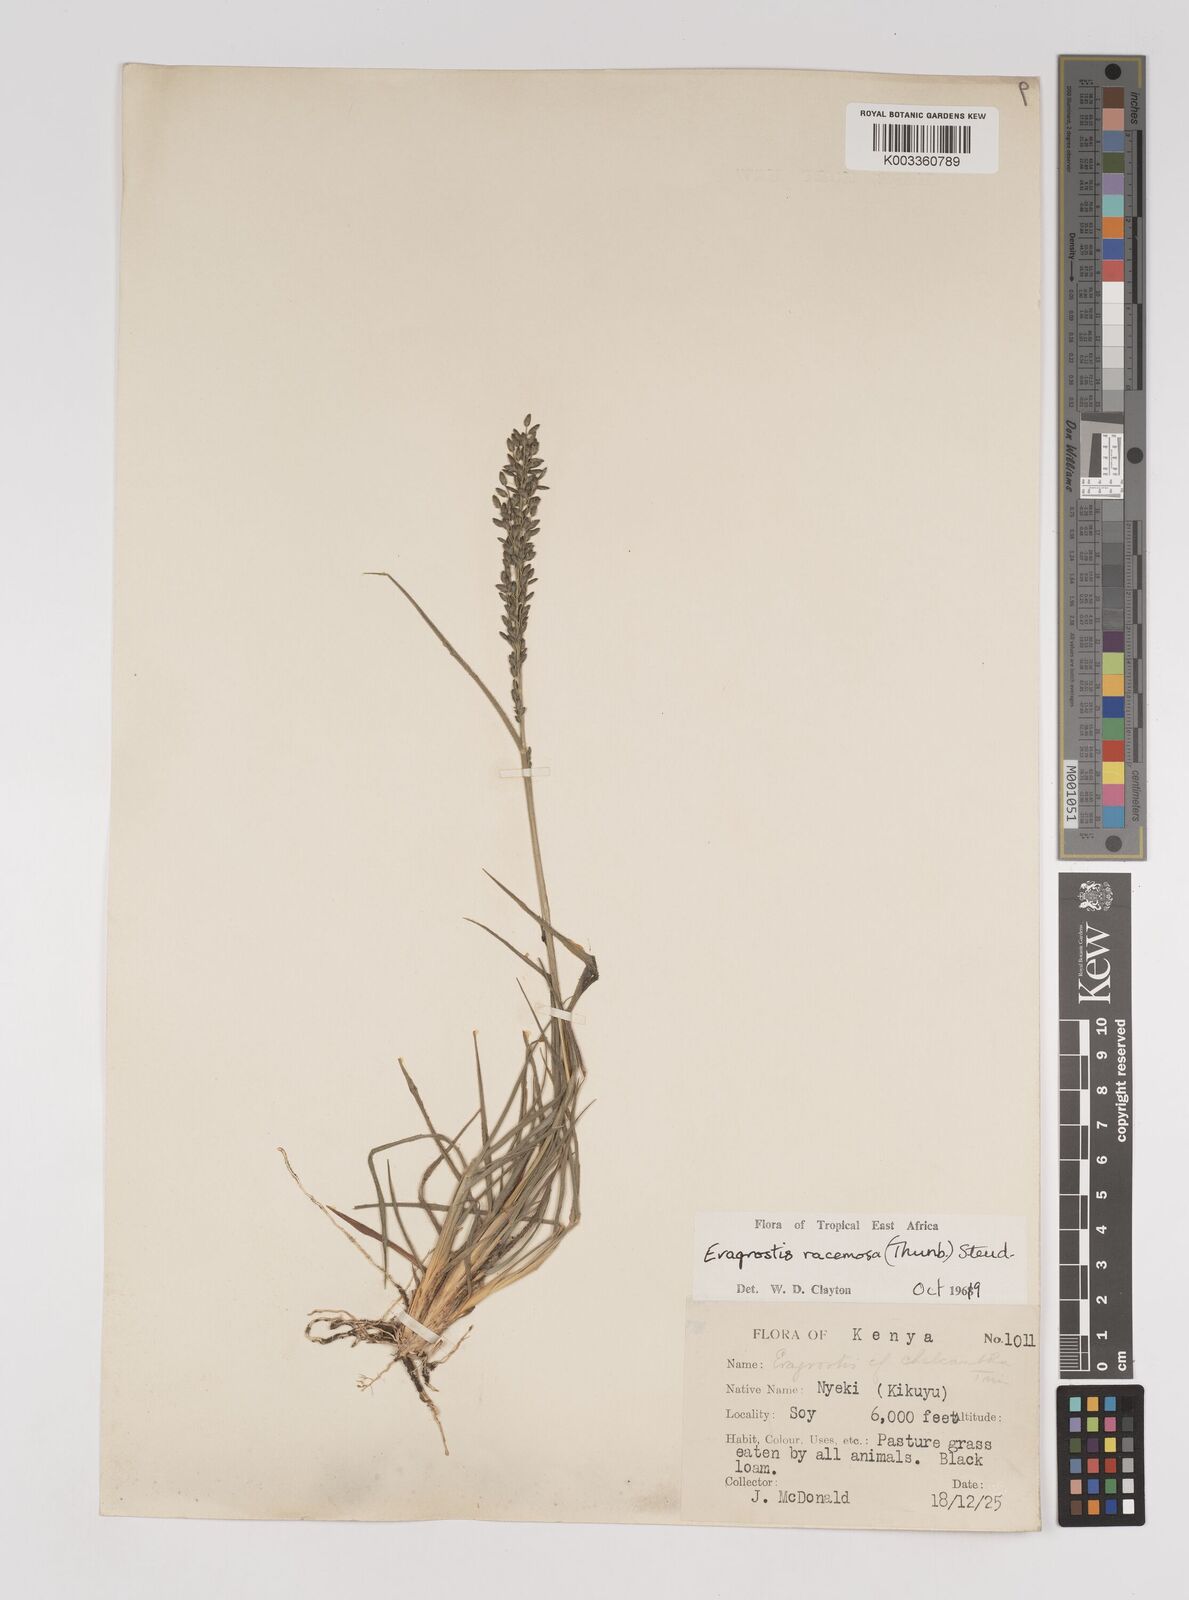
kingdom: Plantae
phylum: Tracheophyta
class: Liliopsida
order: Poales
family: Poaceae
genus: Eragrostis
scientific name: Eragrostis racemosa
